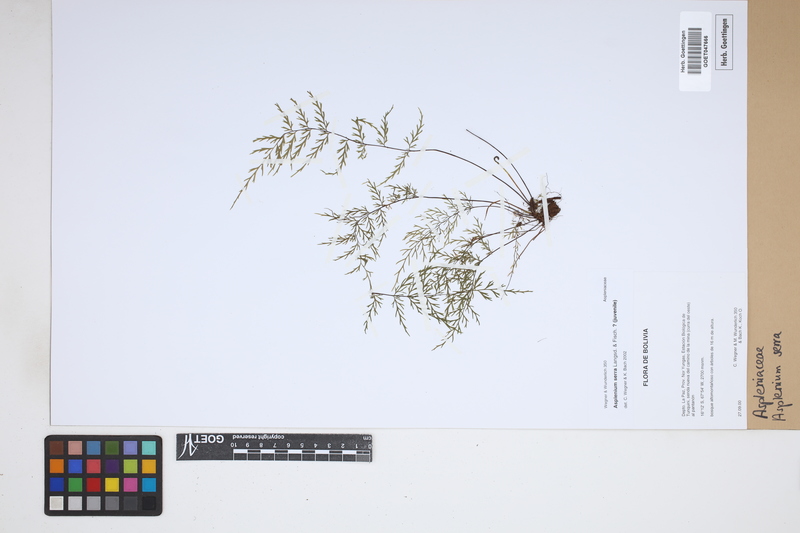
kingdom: Plantae
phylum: Tracheophyta
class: Polypodiopsida
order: Polypodiales
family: Aspleniaceae
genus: Asplenium
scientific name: Asplenium serra
